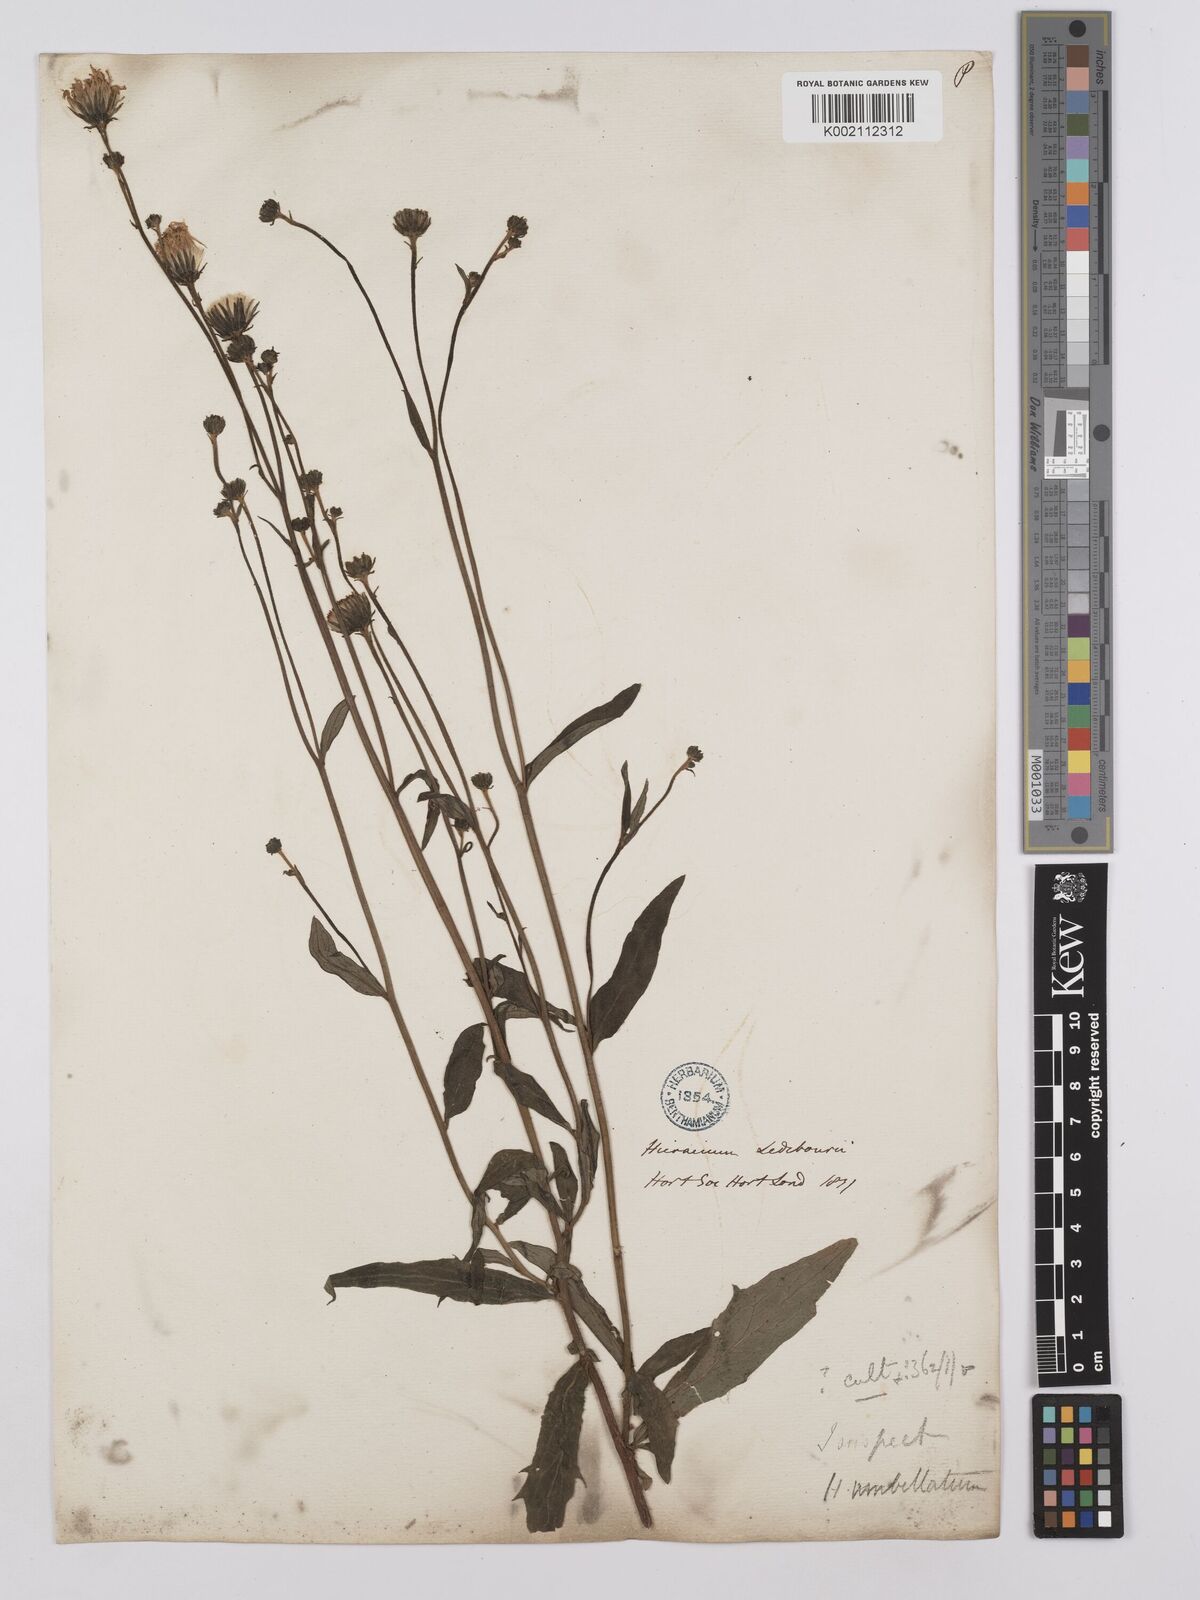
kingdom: Plantae
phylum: Tracheophyta
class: Magnoliopsida
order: Asterales
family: Asteraceae
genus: Hieracium
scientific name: Hieracium umbellatum
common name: Northern hawkweed
